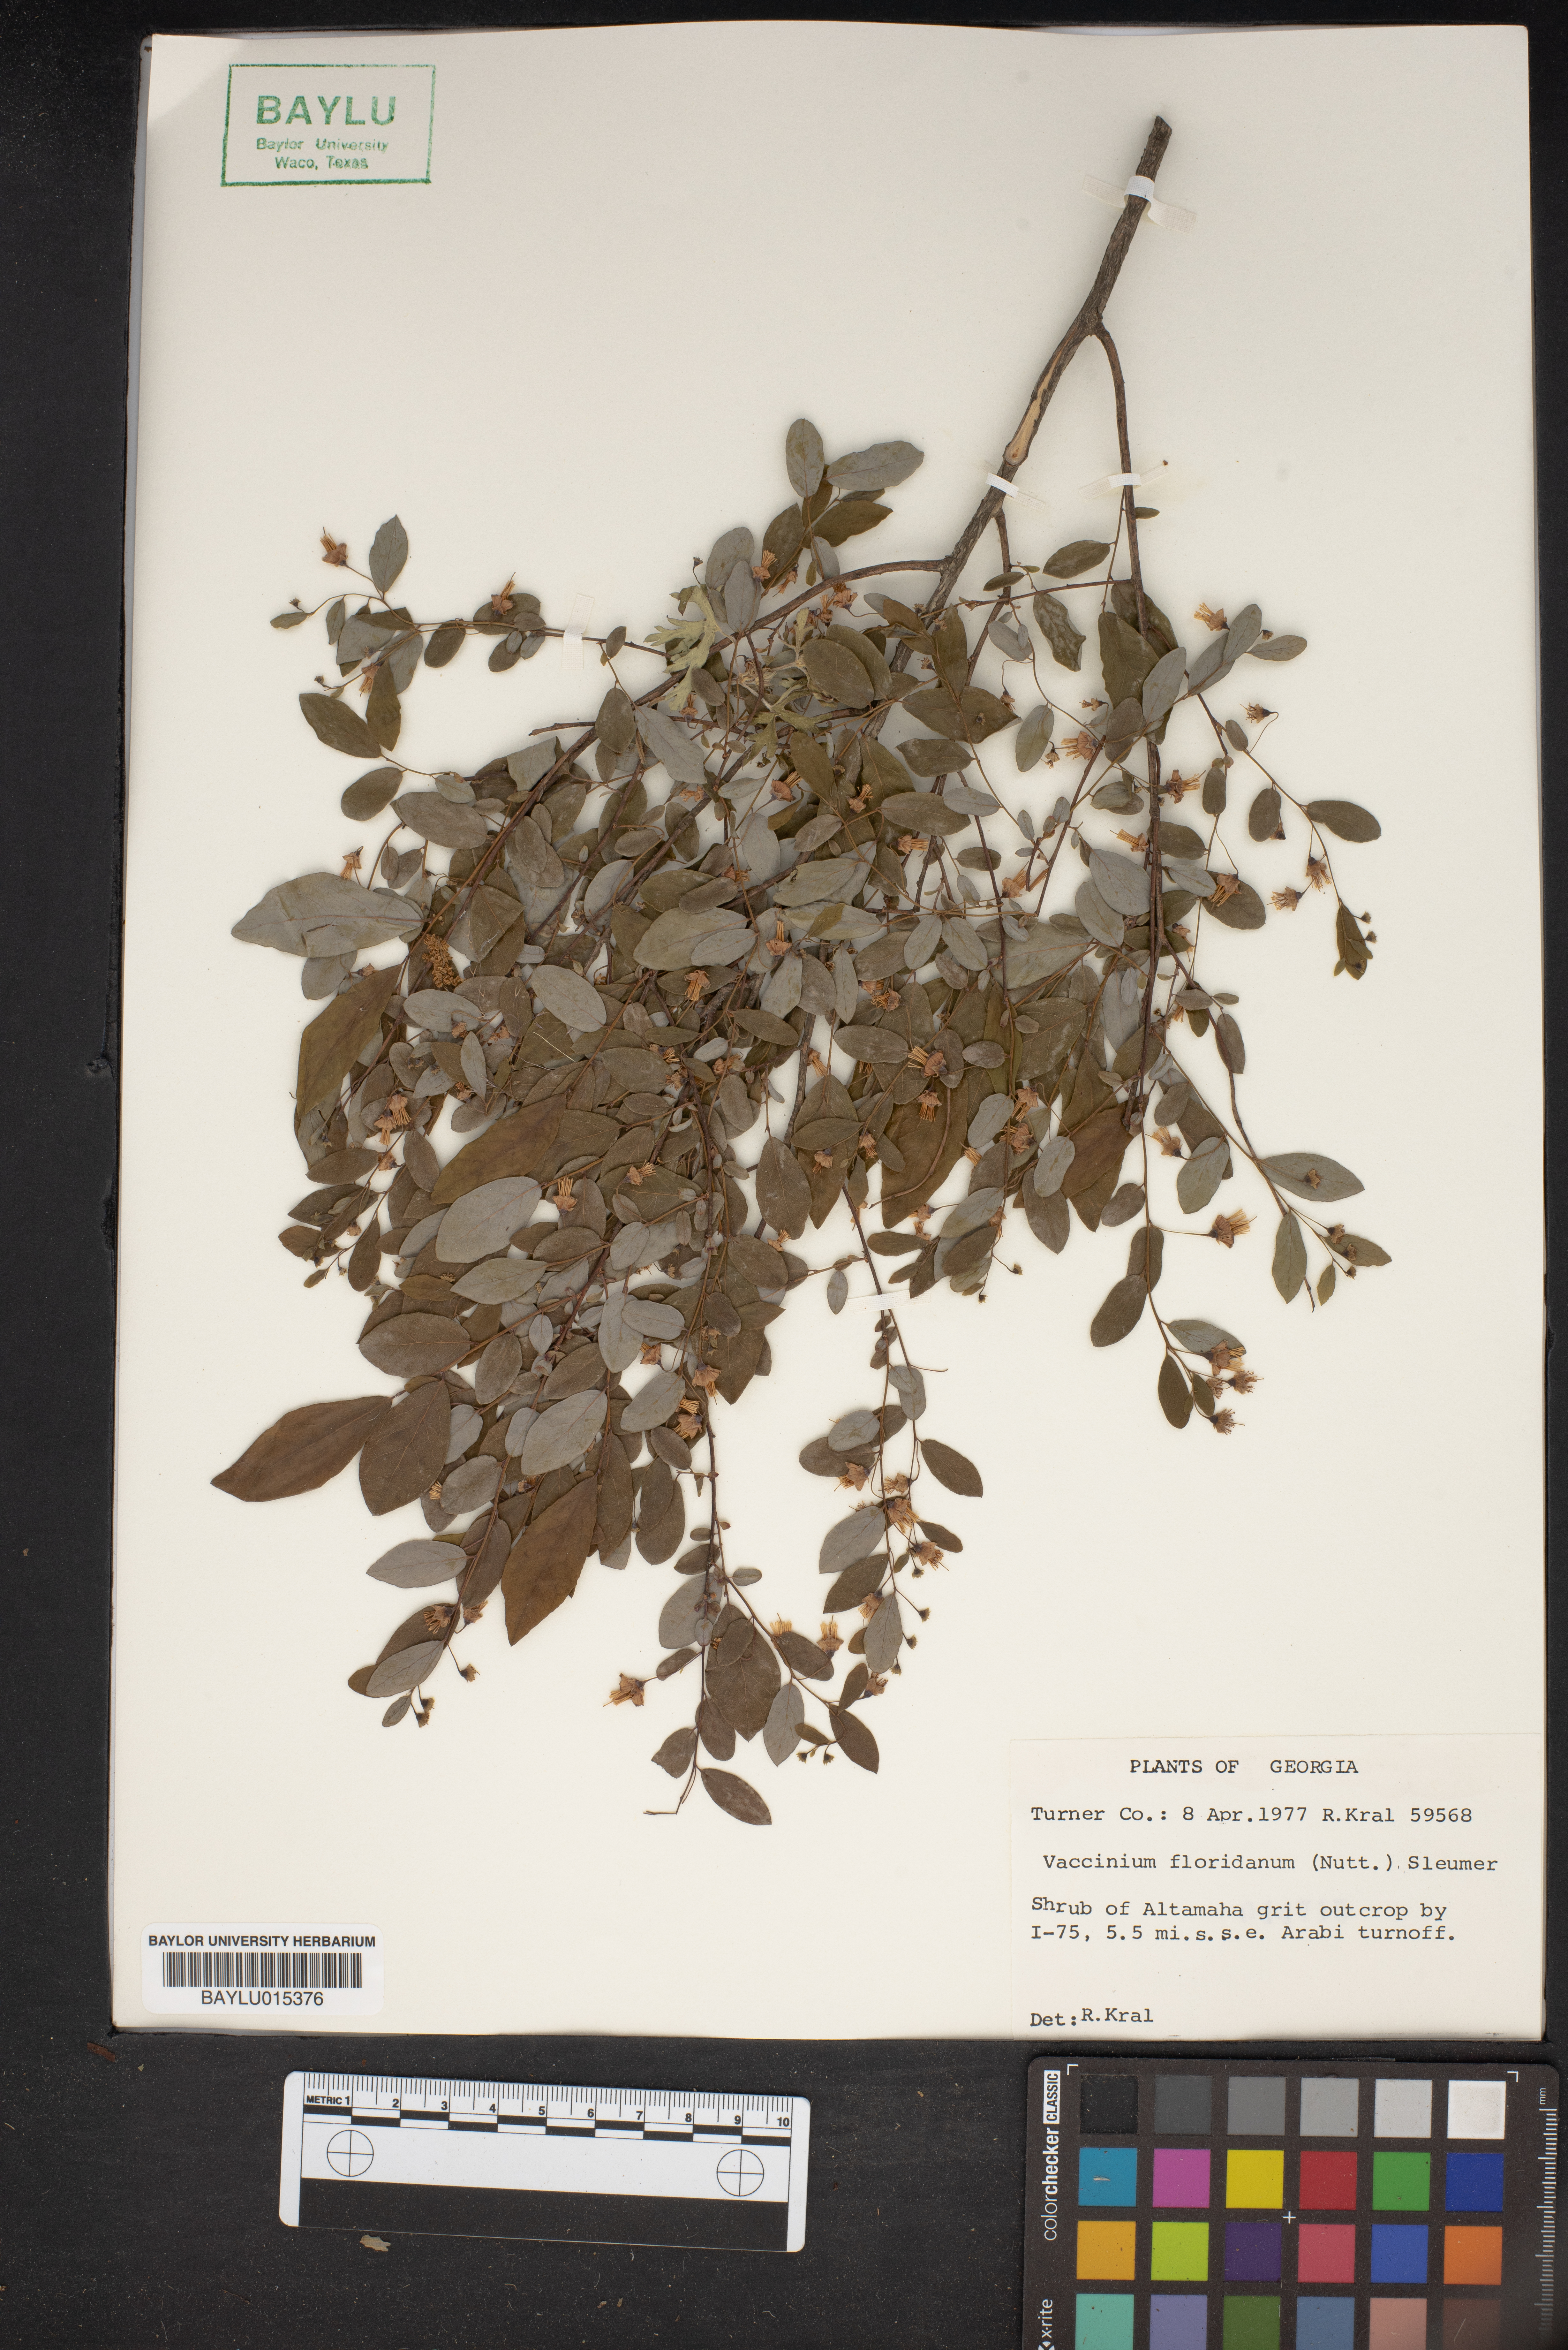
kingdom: Plantae
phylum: Tracheophyta
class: Magnoliopsida
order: Ericales
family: Ericaceae
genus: Vaccinium
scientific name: Vaccinium stamineum
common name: Deerberry
